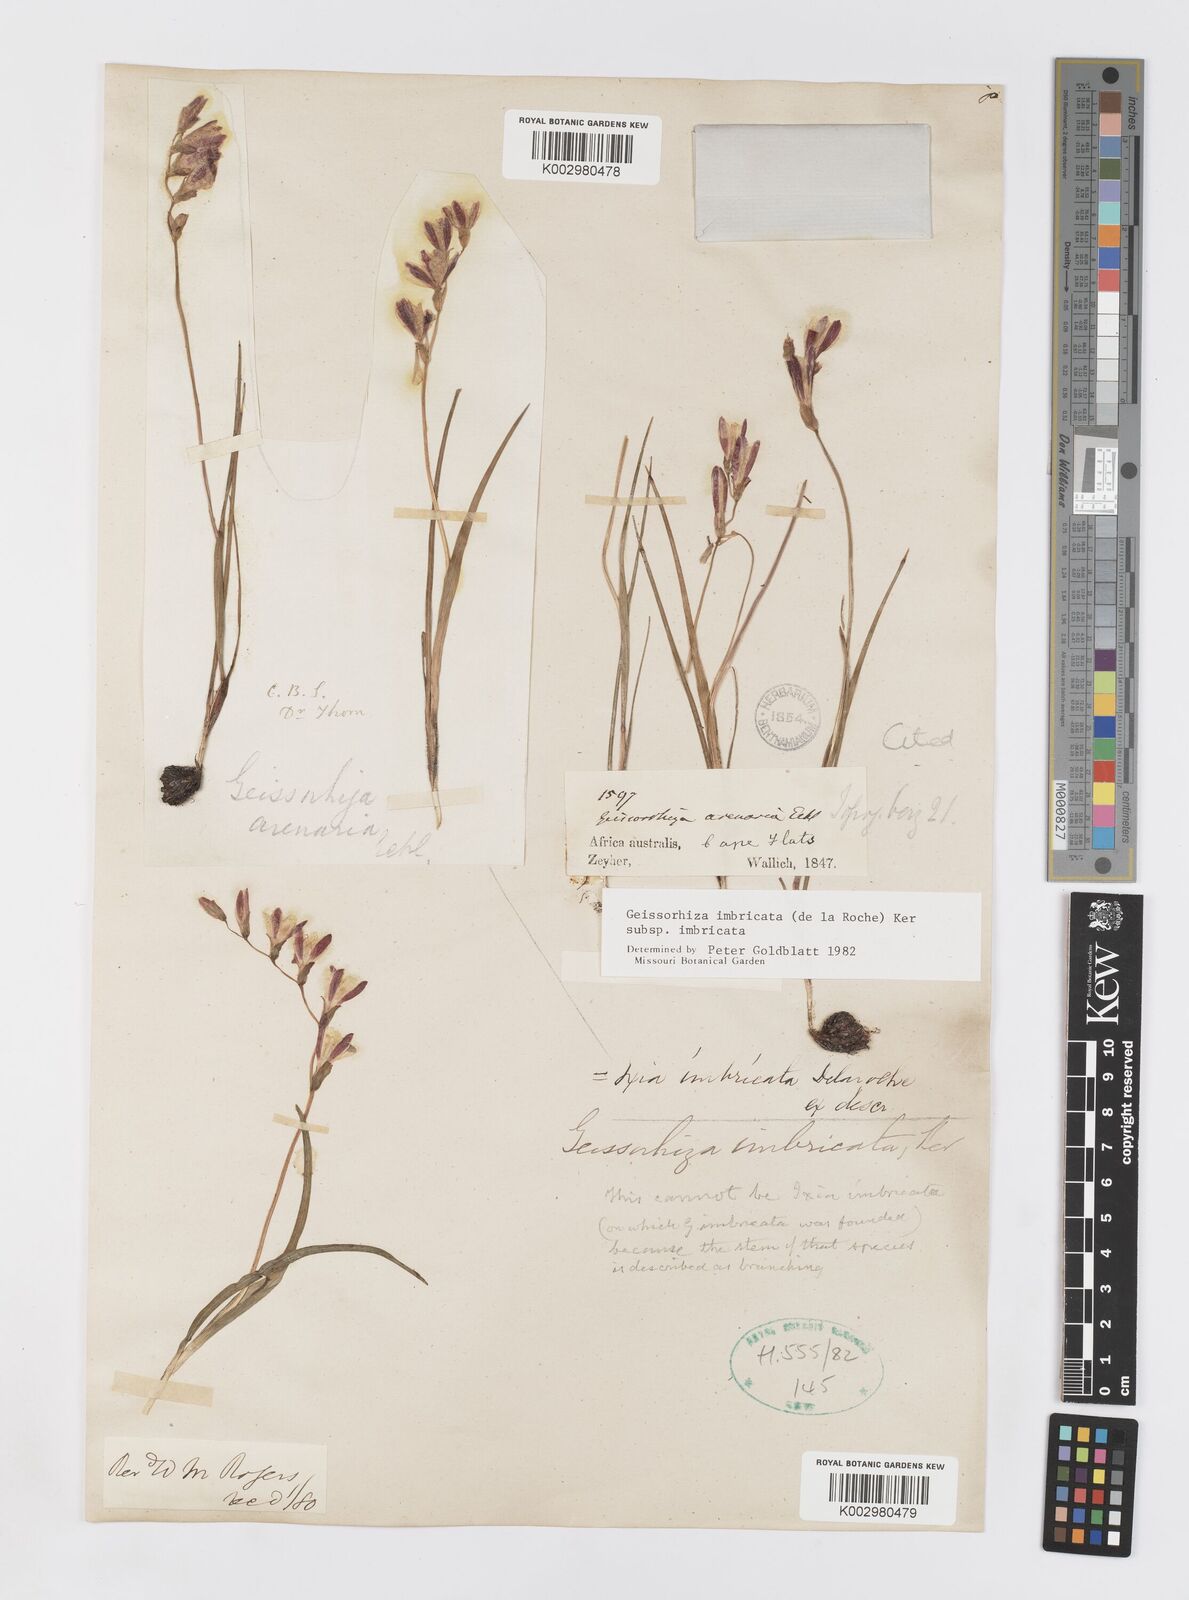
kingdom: Plantae
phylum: Tracheophyta
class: Liliopsida
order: Asparagales
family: Iridaceae
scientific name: Iridaceae
